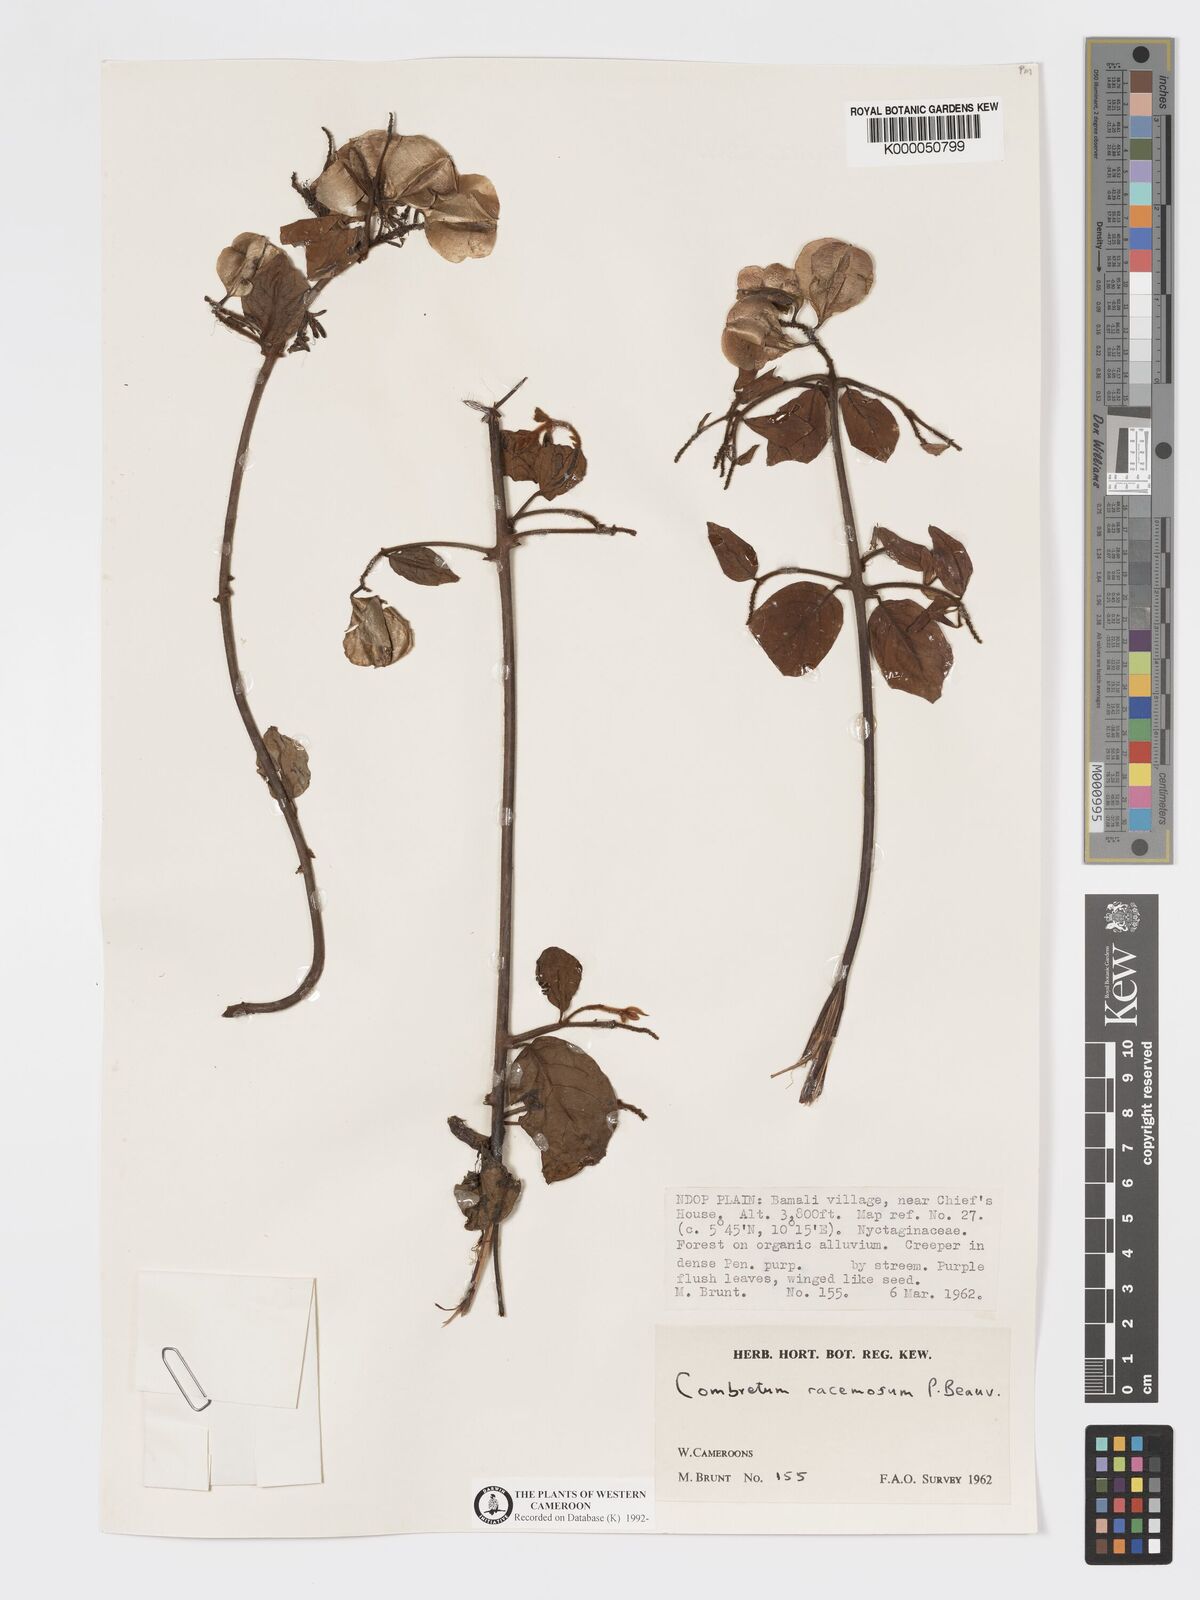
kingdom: Plantae
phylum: Tracheophyta
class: Magnoliopsida
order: Myrtales
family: Combretaceae
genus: Combretum
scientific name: Combretum racemosum
